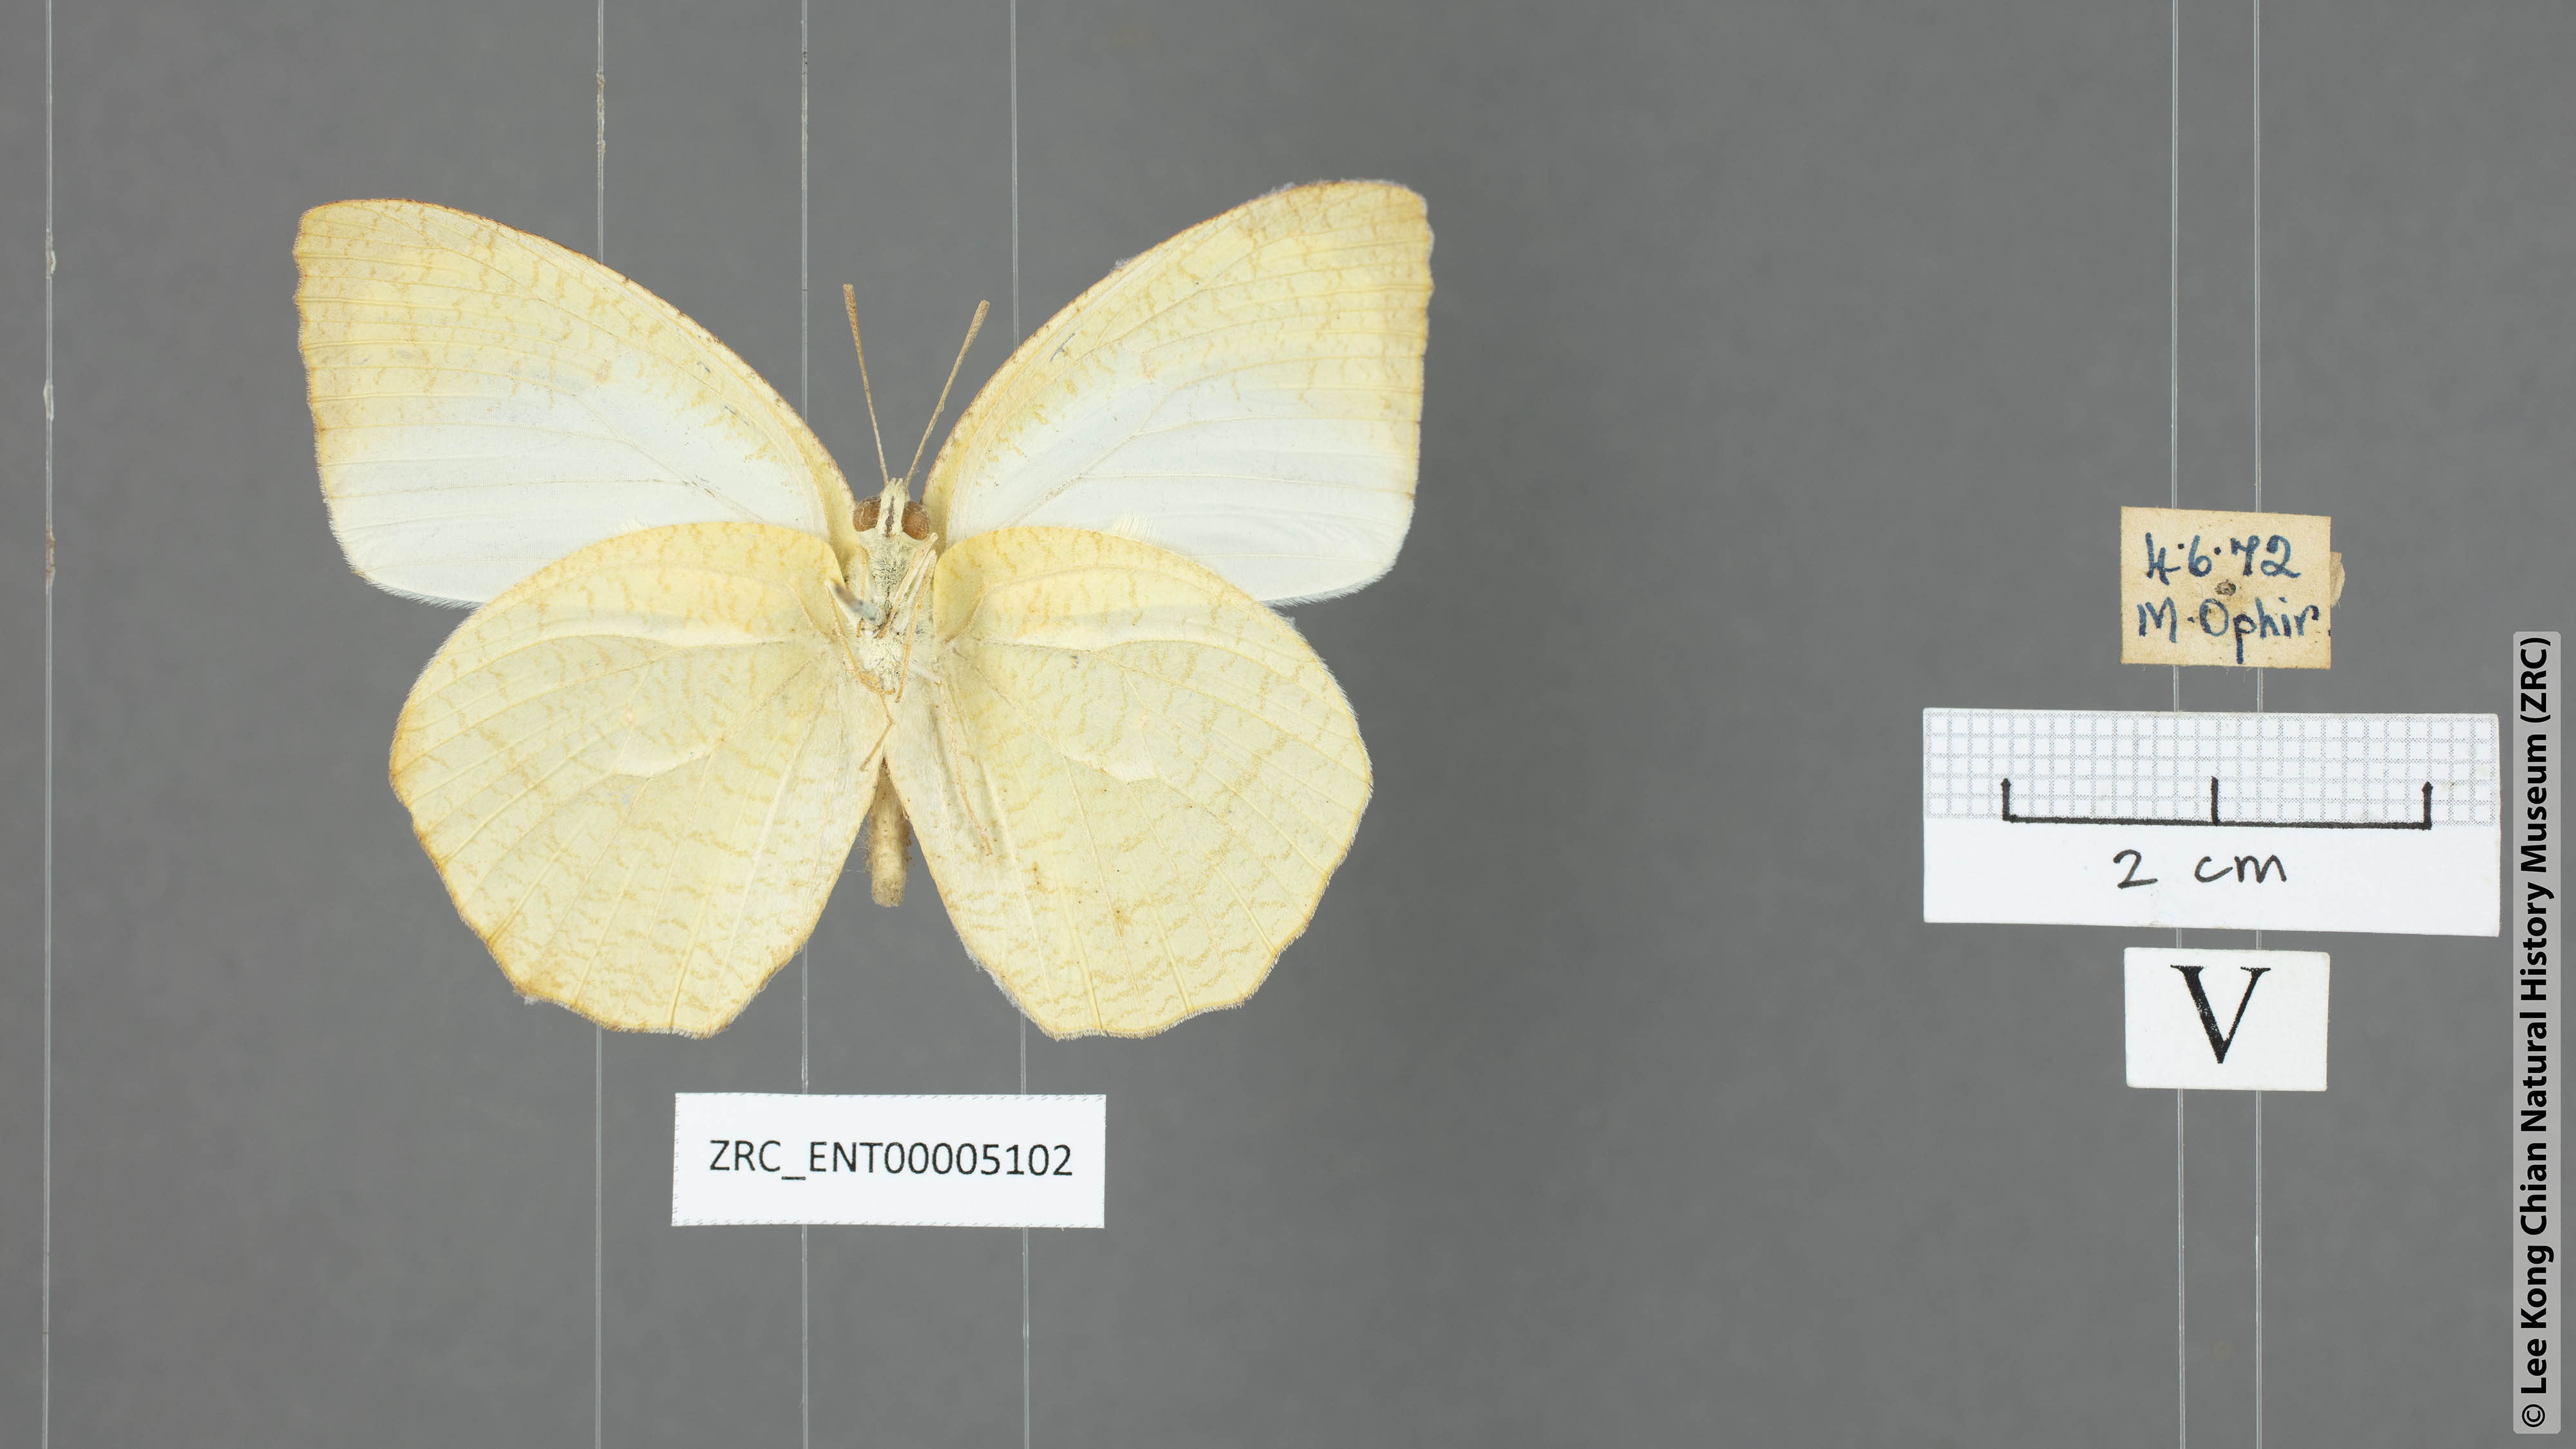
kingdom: Animalia
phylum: Arthropoda
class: Insecta
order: Lepidoptera
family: Pieridae
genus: Catopsilia
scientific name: Catopsilia pyranthe
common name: Mottled emigrant
